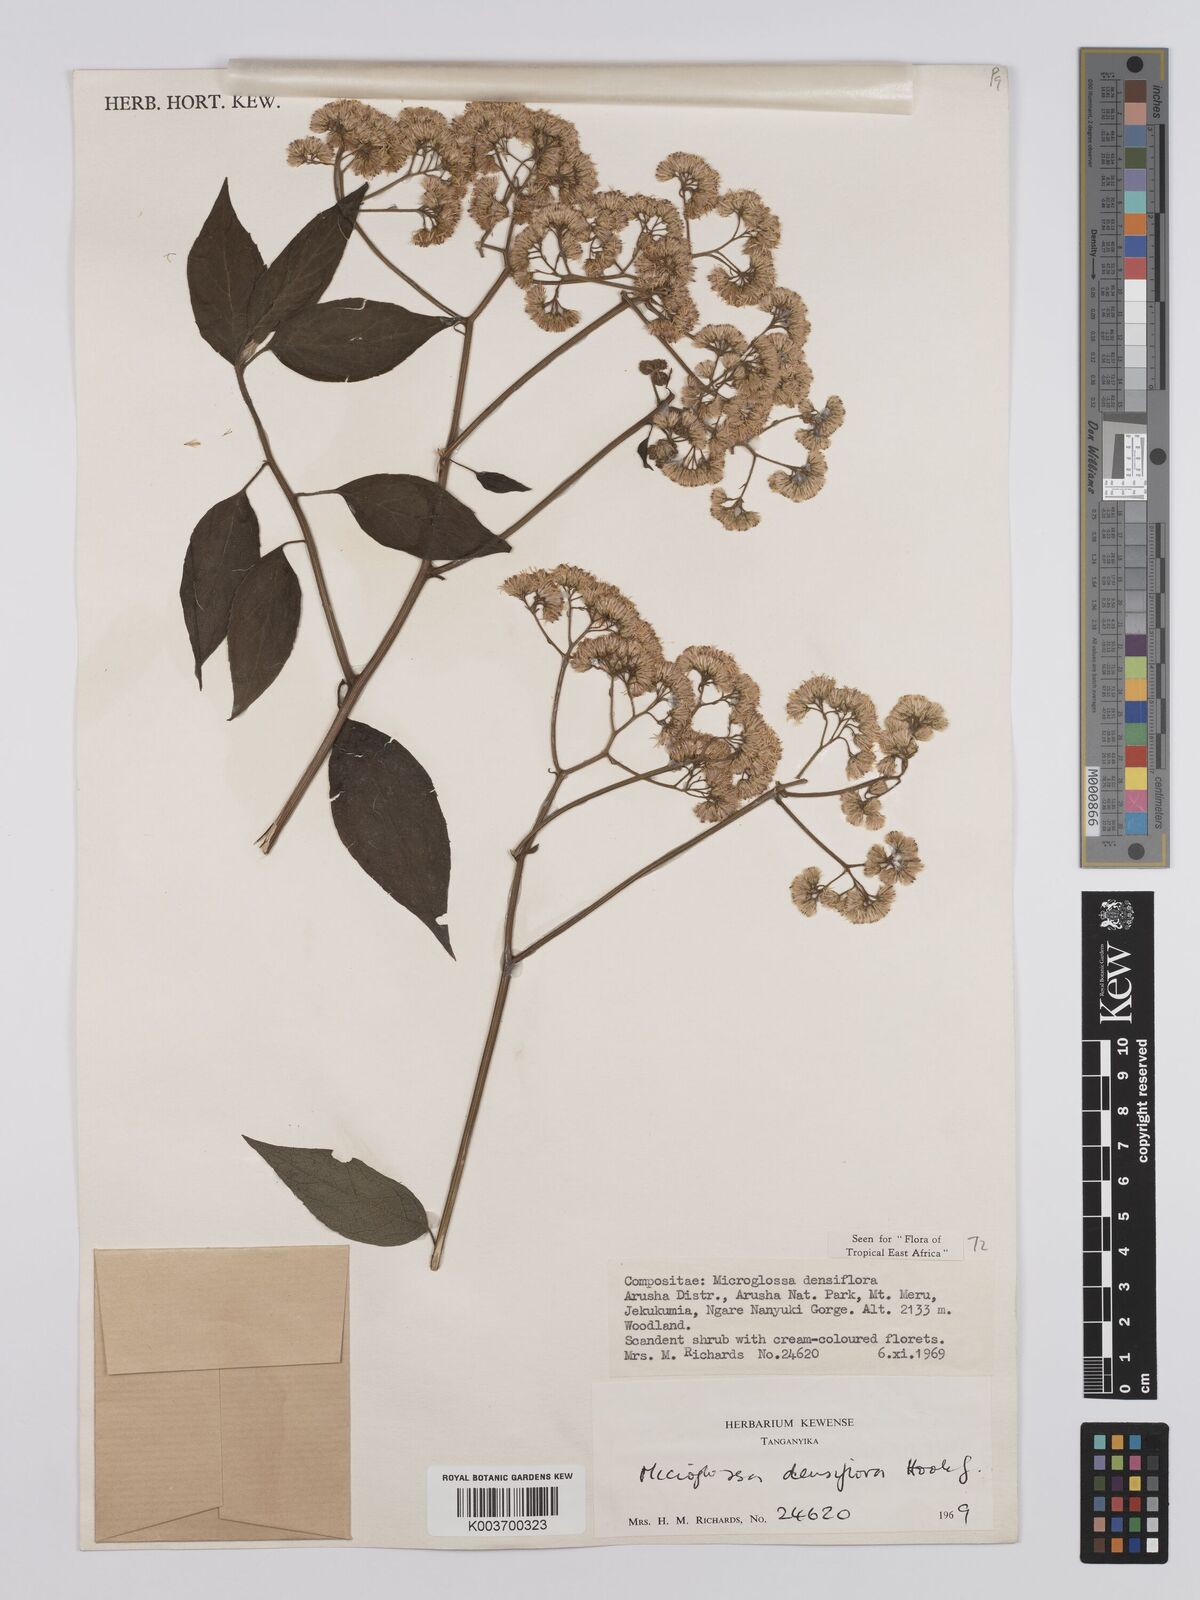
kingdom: Plantae
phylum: Tracheophyta
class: Magnoliopsida
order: Asterales
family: Asteraceae
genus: Microglossa
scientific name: Microglossa densiflora
